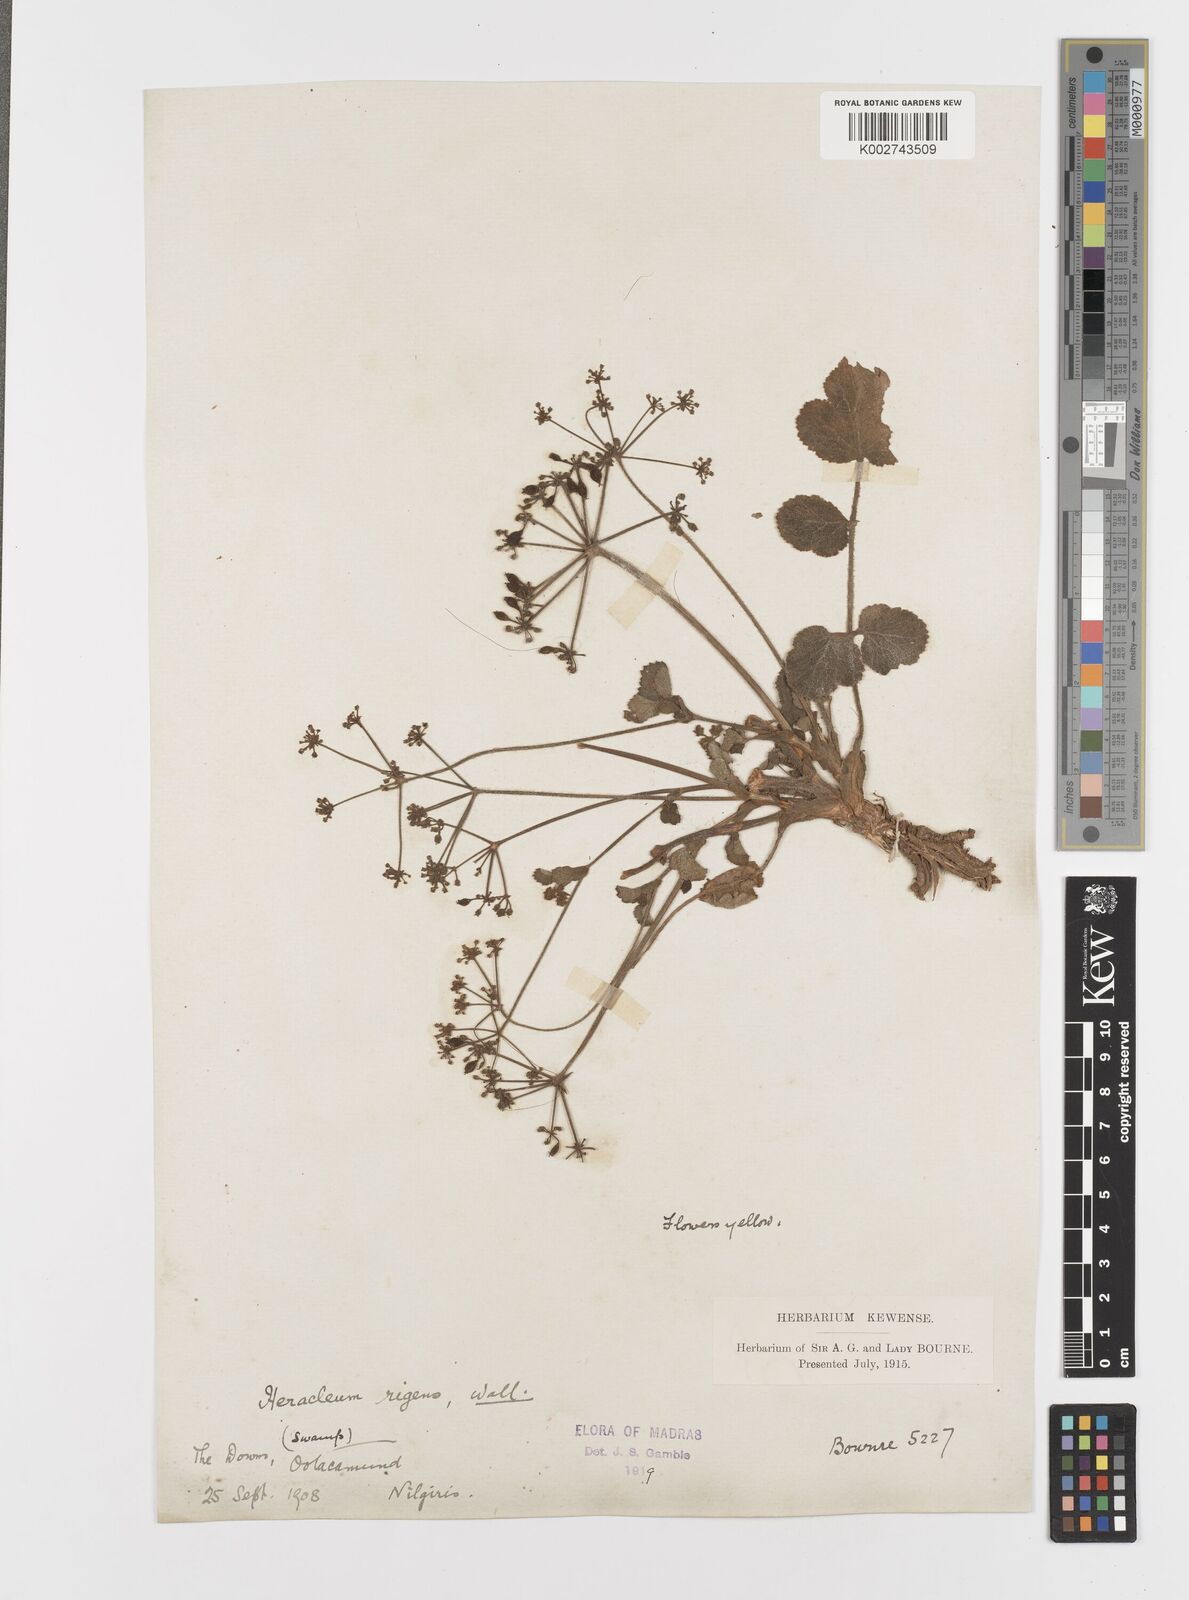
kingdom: Plantae
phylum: Tracheophyta
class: Magnoliopsida
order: Apiales
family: Apiaceae
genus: Tetrataenium
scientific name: Tetrataenium rigens
